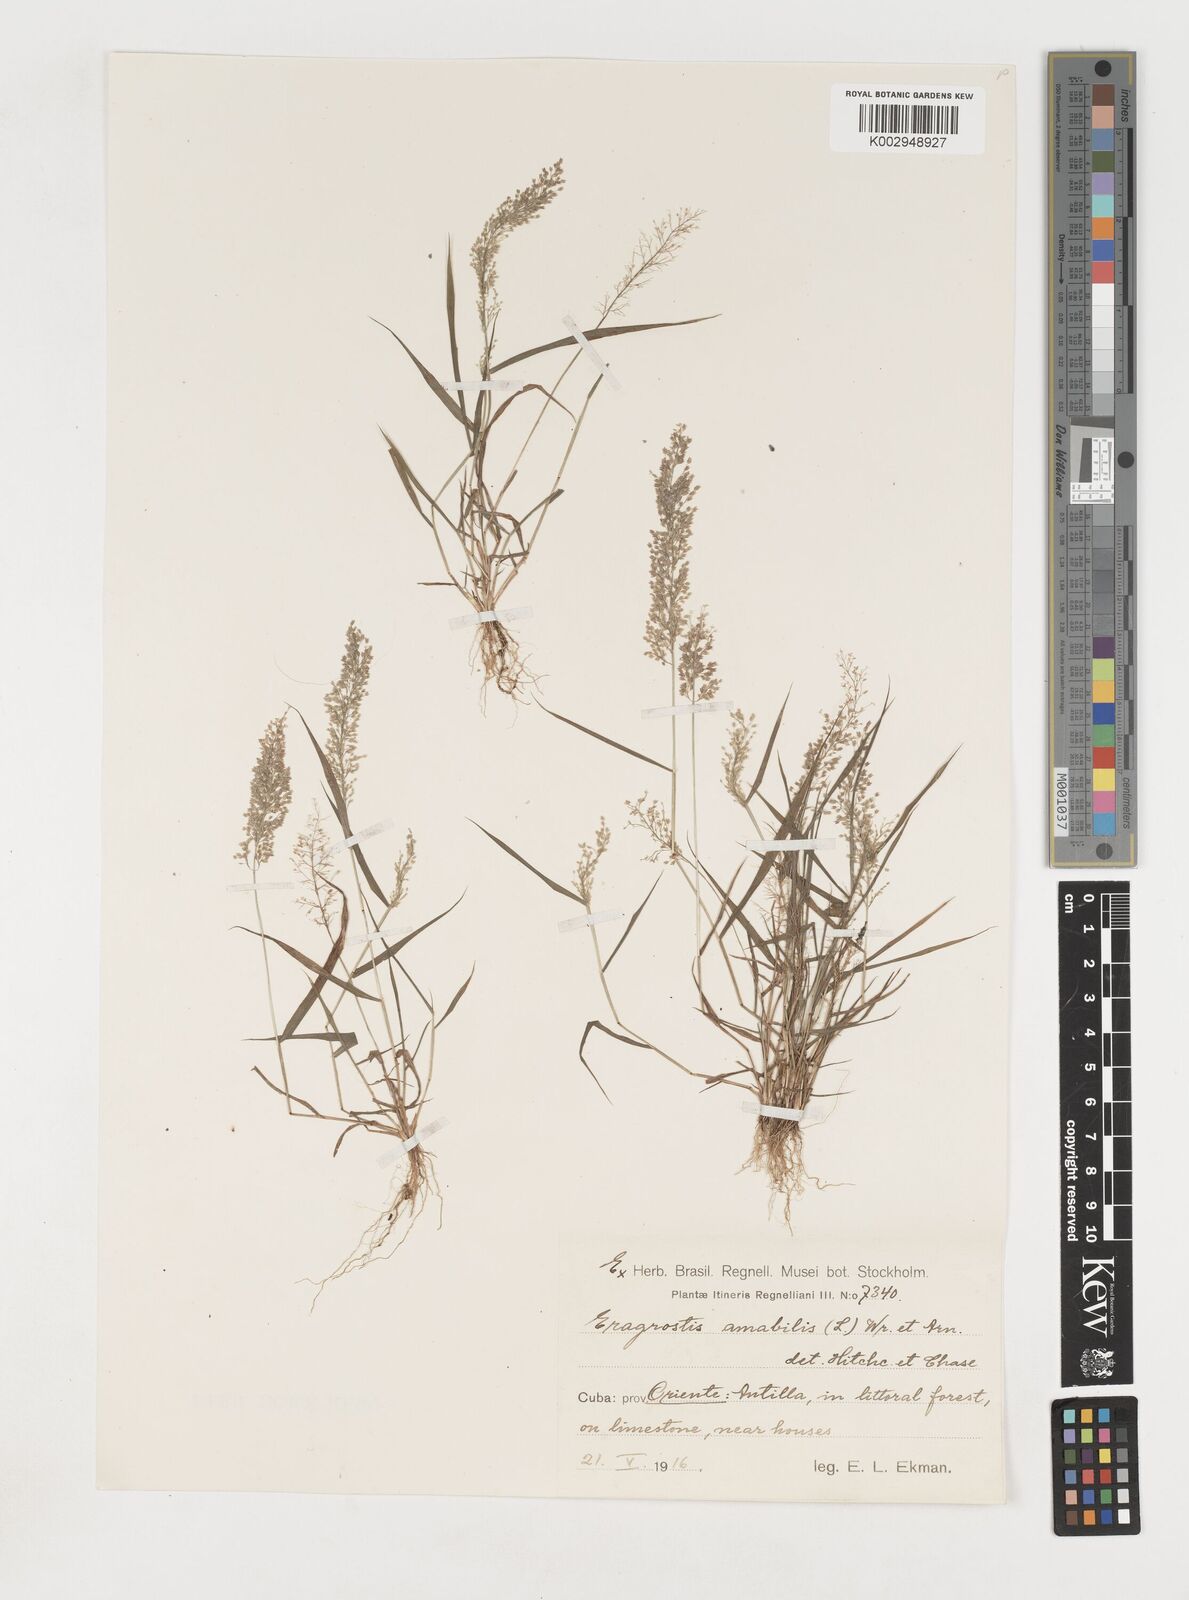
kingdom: Plantae
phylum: Tracheophyta
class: Liliopsida
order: Poales
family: Poaceae
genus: Eragrostis
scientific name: Eragrostis tenella
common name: Japanese lovegrass
